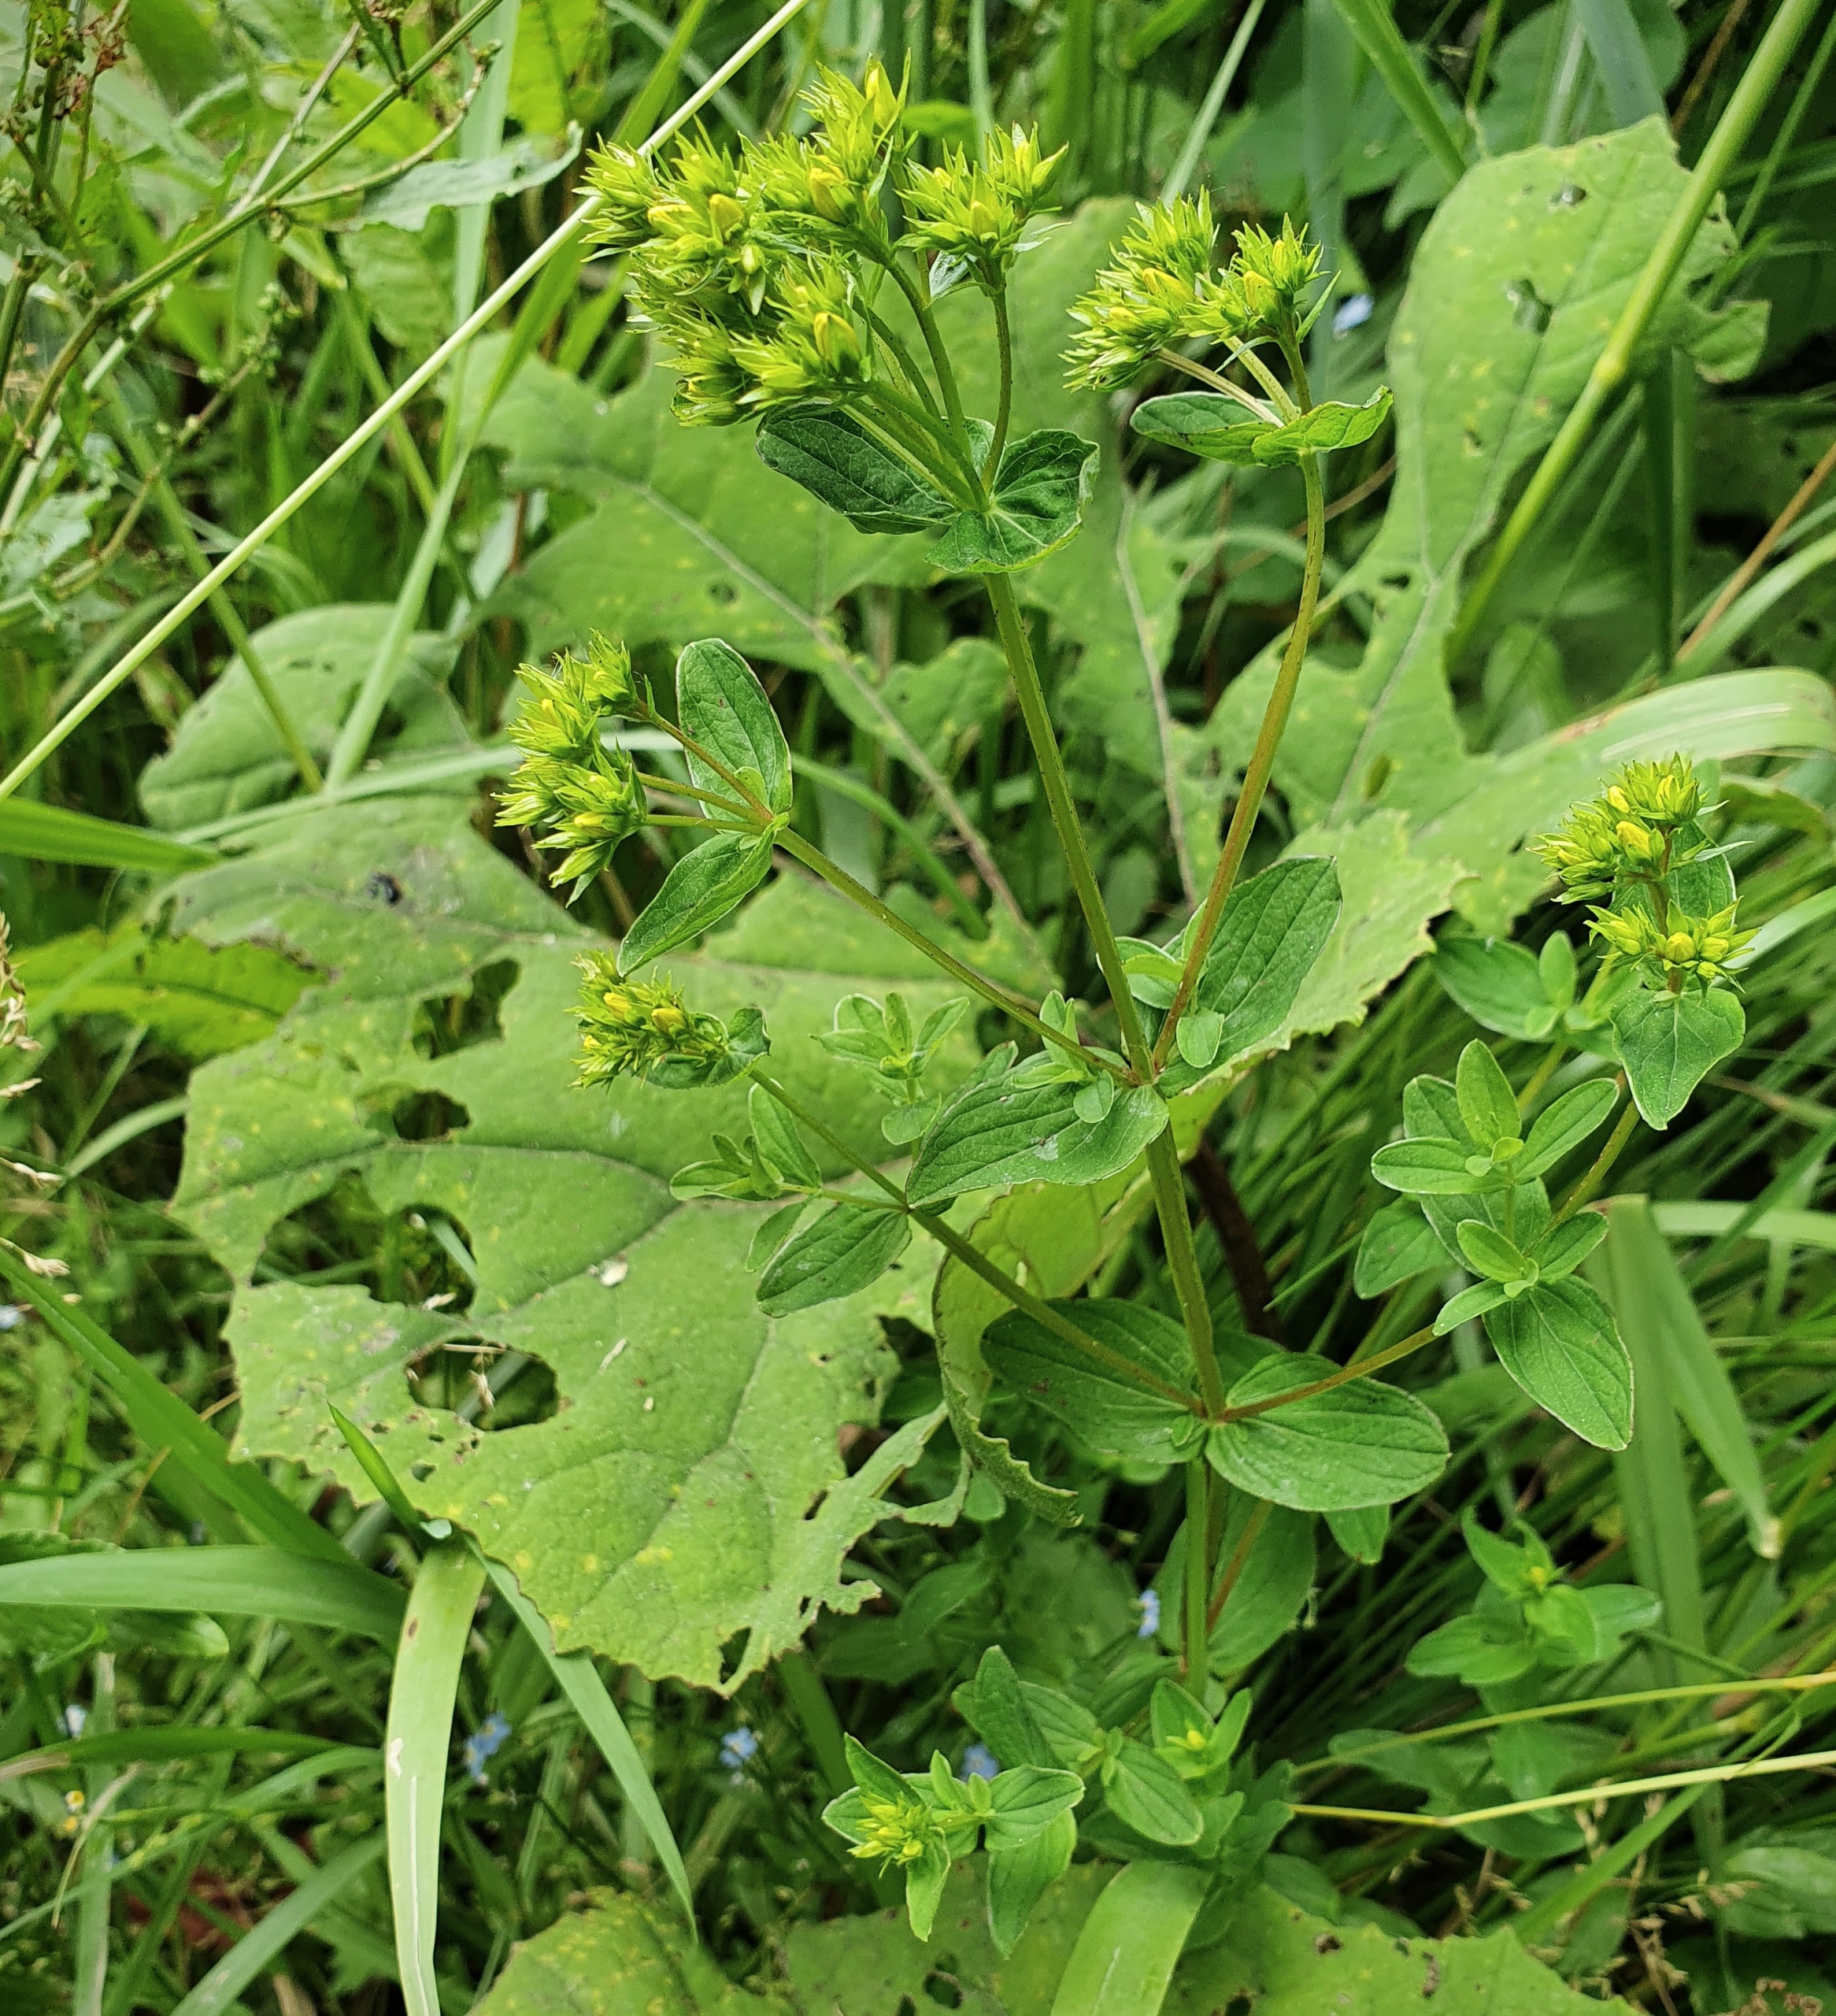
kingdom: Plantae
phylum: Tracheophyta
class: Magnoliopsida
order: Malpighiales
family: Hypericaceae
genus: Hypericum
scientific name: Hypericum tetrapterum
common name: Vinget perikon
